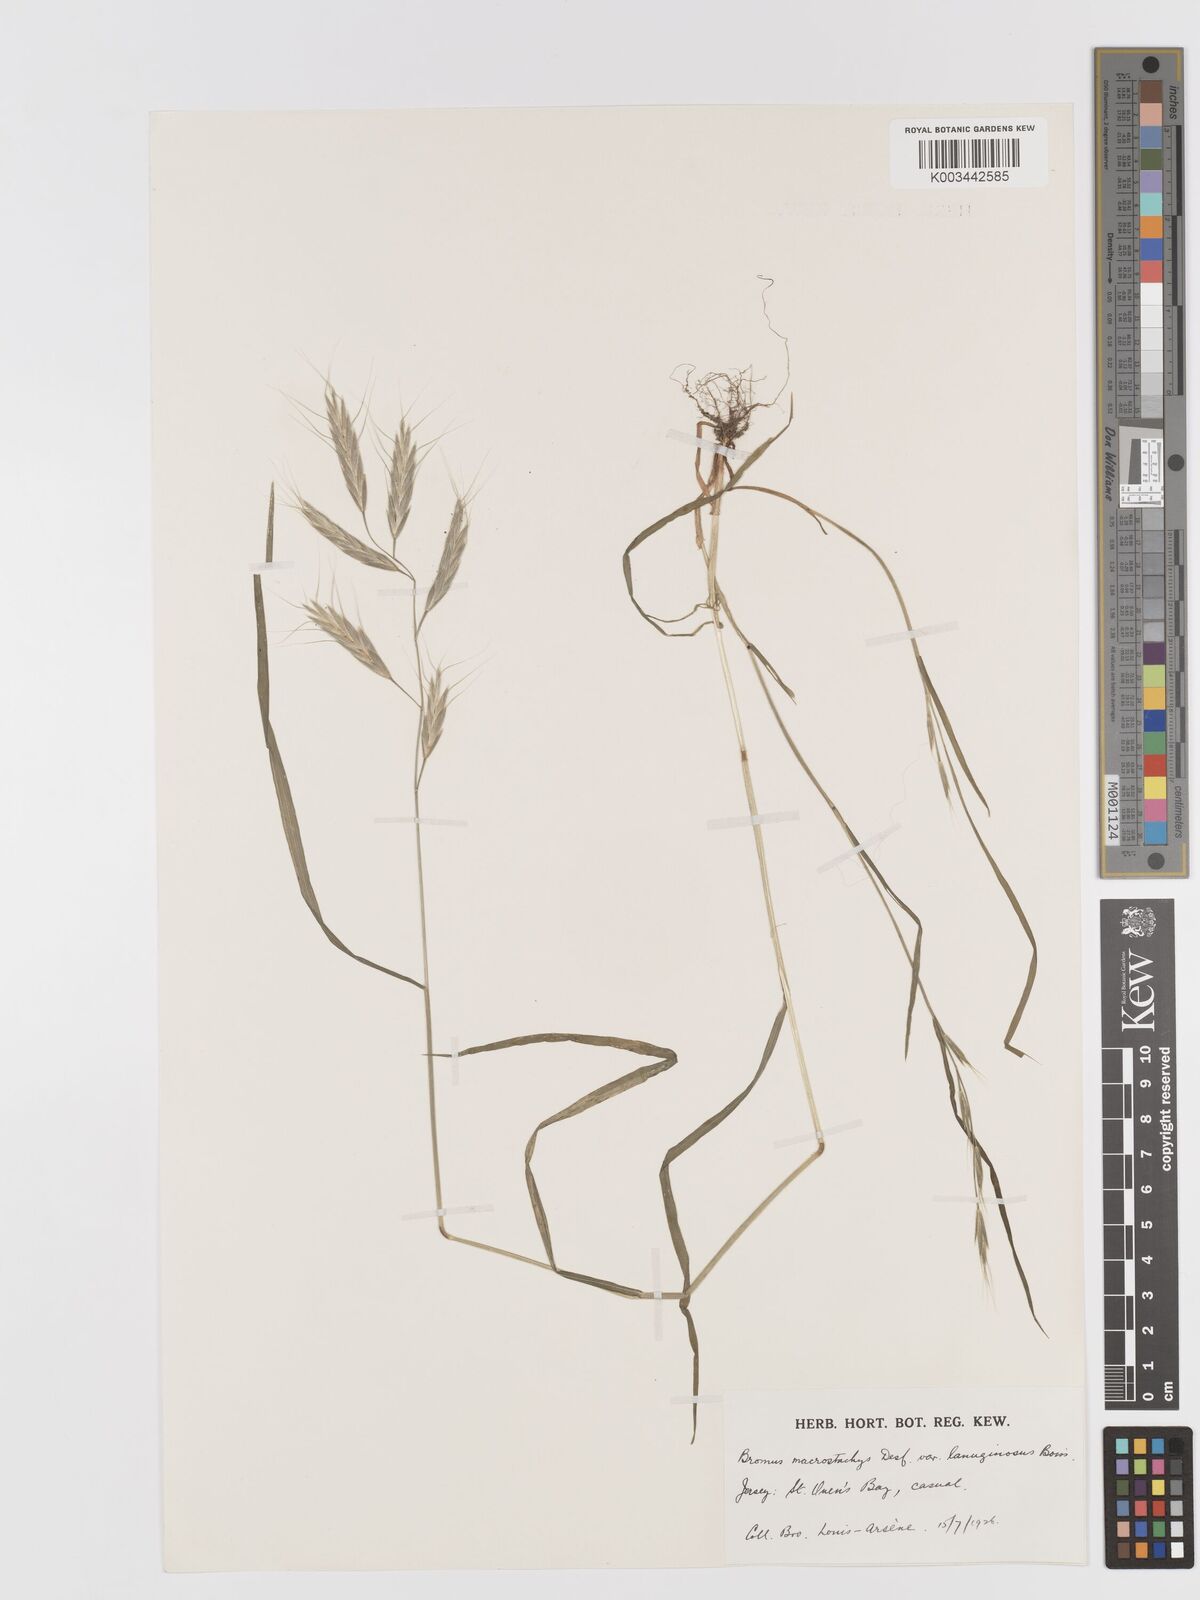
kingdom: Plantae
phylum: Tracheophyta
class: Liliopsida
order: Poales
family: Poaceae
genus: Bromus
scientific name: Bromus lanceolatus
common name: Mediterranean brome
